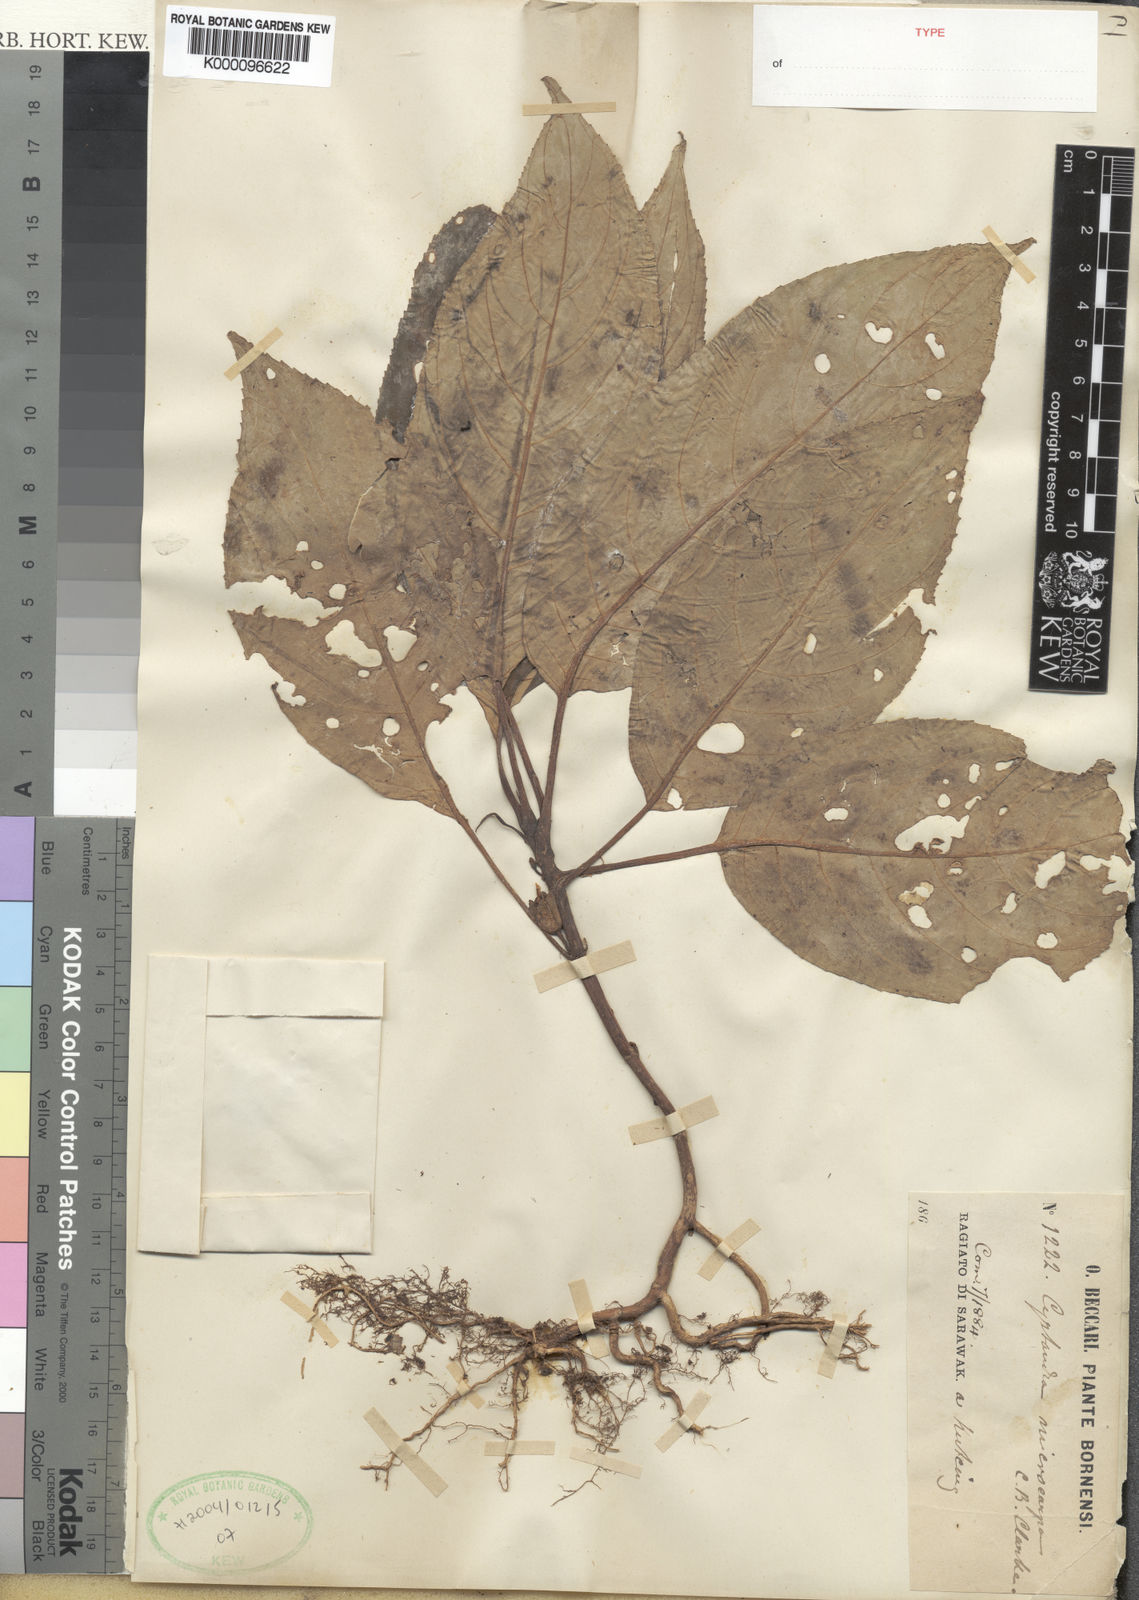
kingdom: Plantae
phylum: Tracheophyta
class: Magnoliopsida
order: Lamiales
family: Gesneriaceae
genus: Rhynchotechum
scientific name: Rhynchotechum parviflorum
